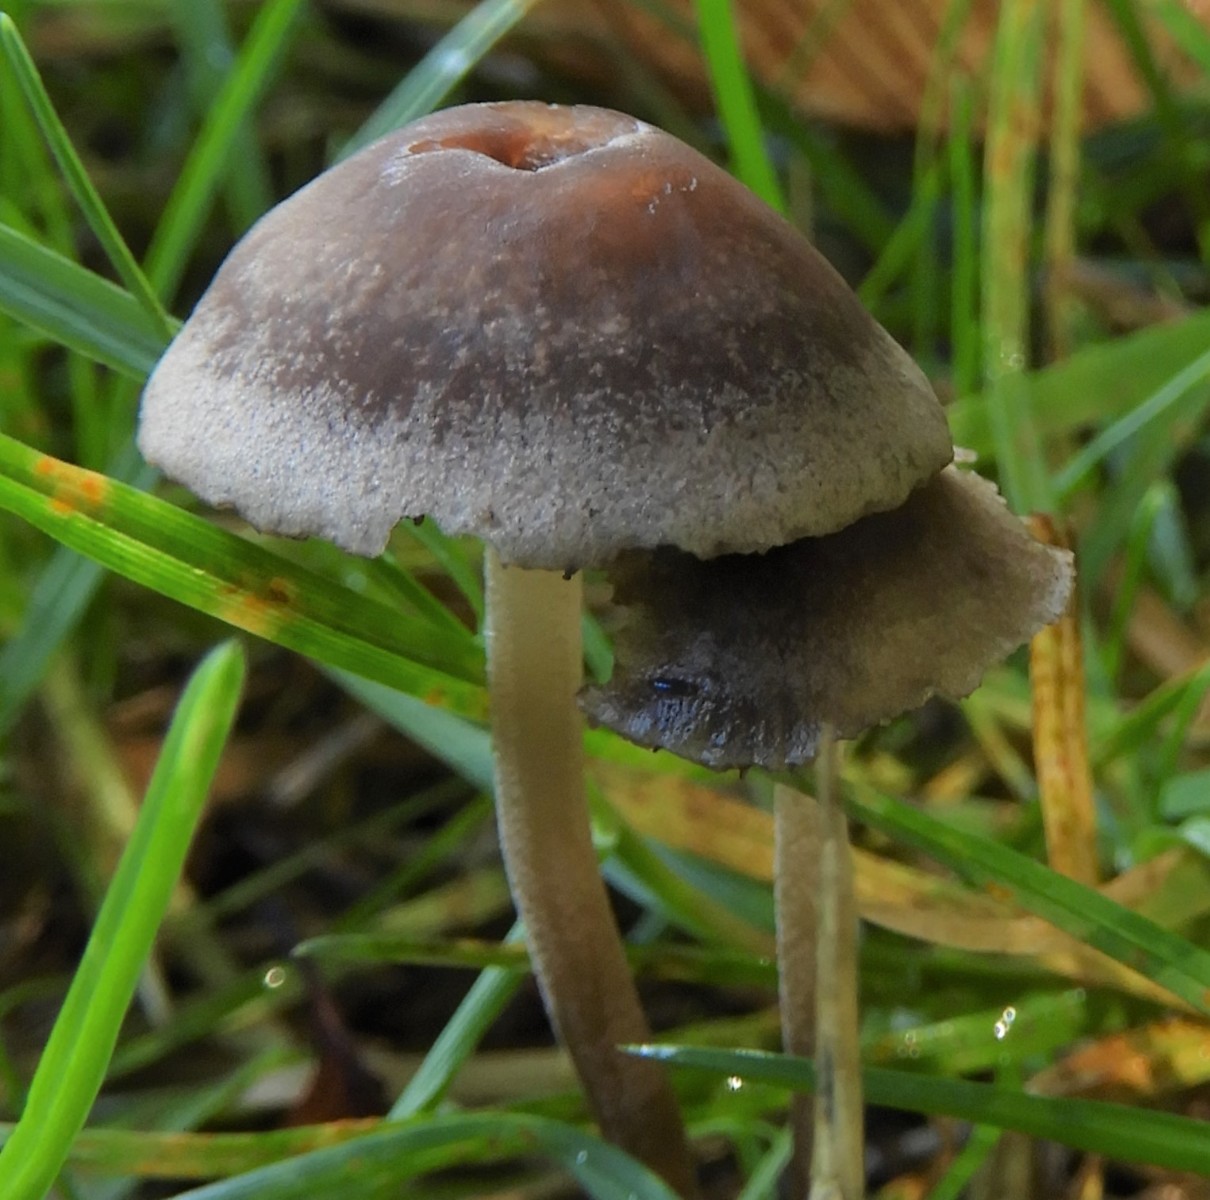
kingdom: Fungi
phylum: Basidiomycota
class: Agaricomycetes
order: Agaricales
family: Bolbitiaceae
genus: Panaeolina
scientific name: Panaeolina foenisecii
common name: høslætsvamp
